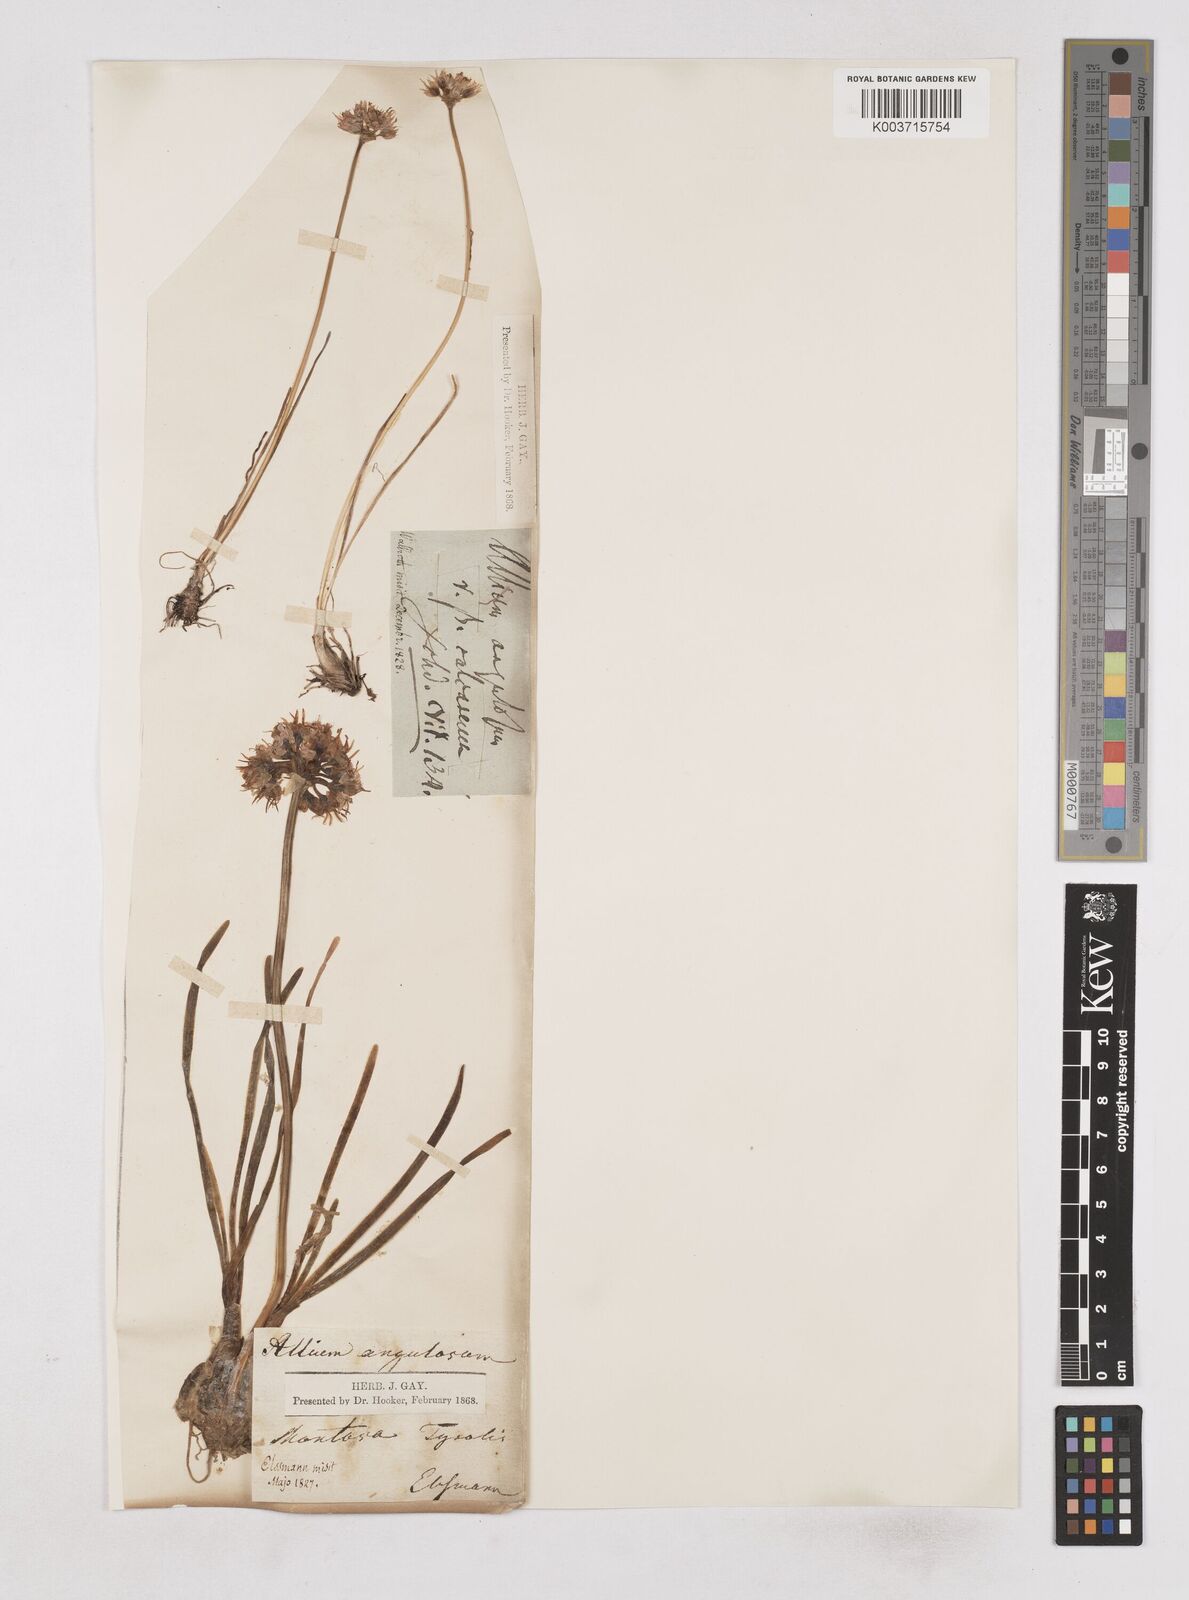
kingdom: Plantae
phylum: Tracheophyta
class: Liliopsida
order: Asparagales
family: Amaryllidaceae
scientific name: Amaryllidaceae
